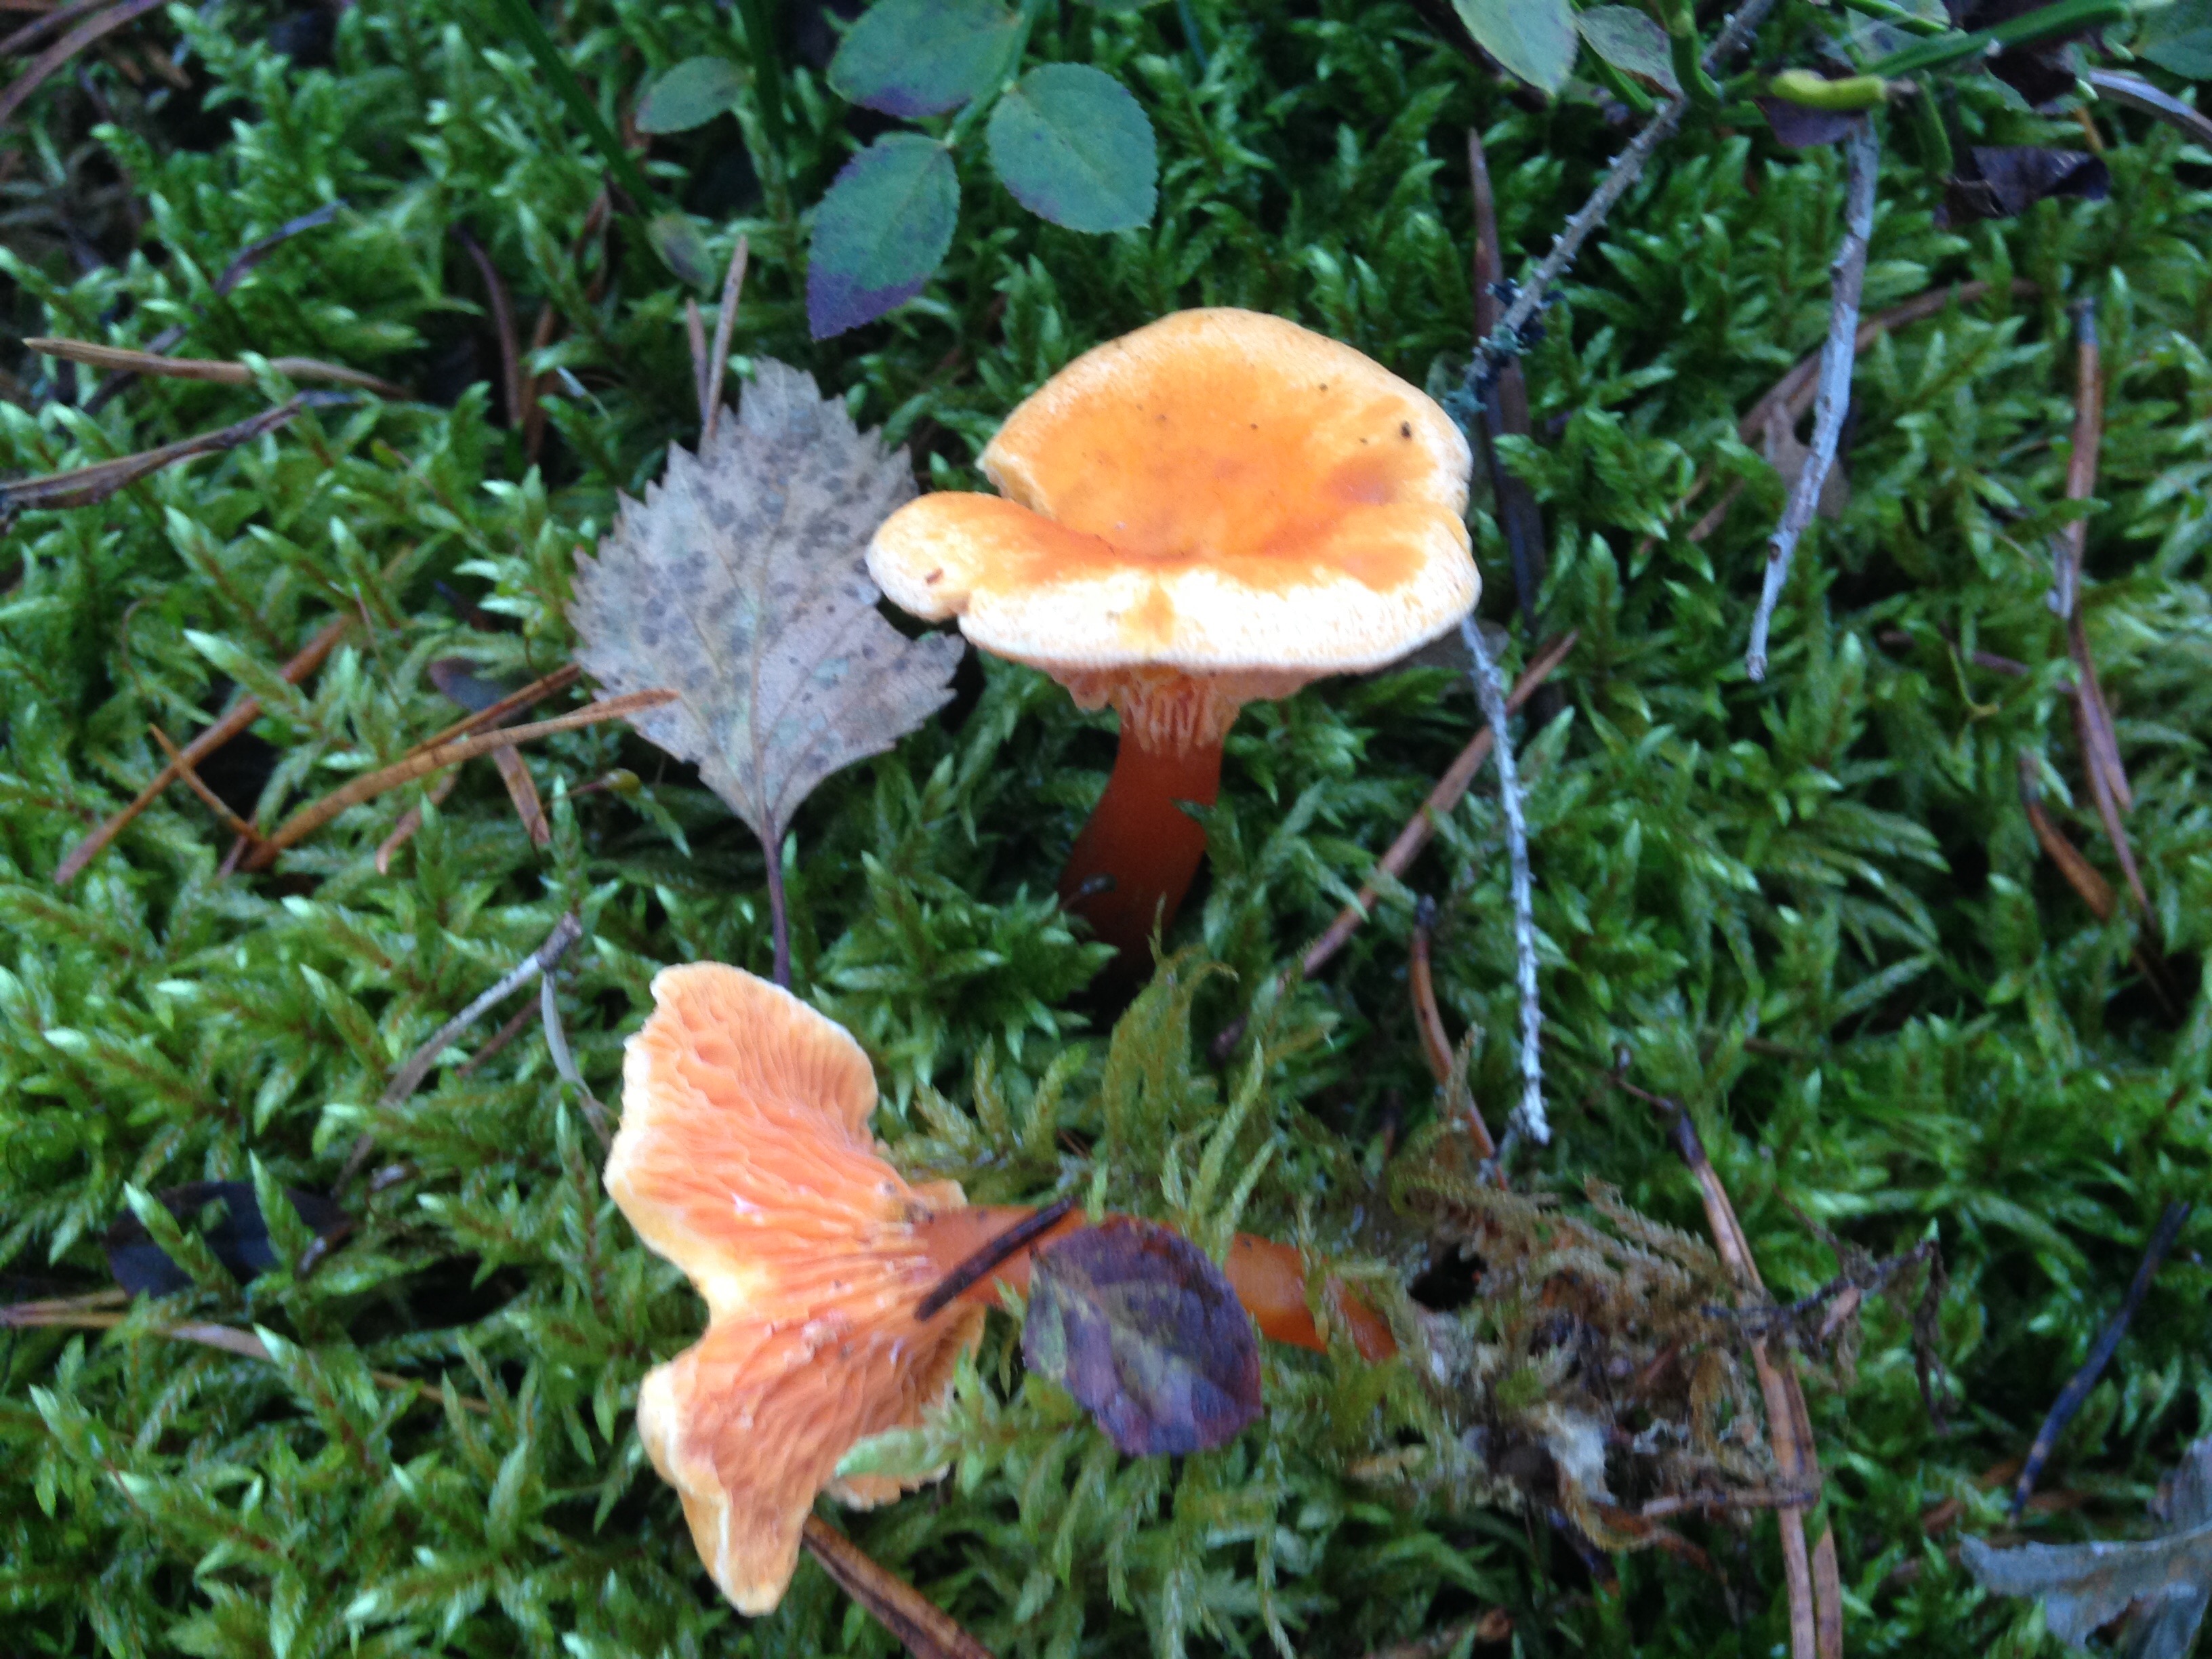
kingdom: Fungi
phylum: Basidiomycota
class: Agaricomycetes
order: Boletales
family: Hygrophoropsidaceae
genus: Hygrophoropsis
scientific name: Hygrophoropsis aurantiaca
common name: False chanterelle
